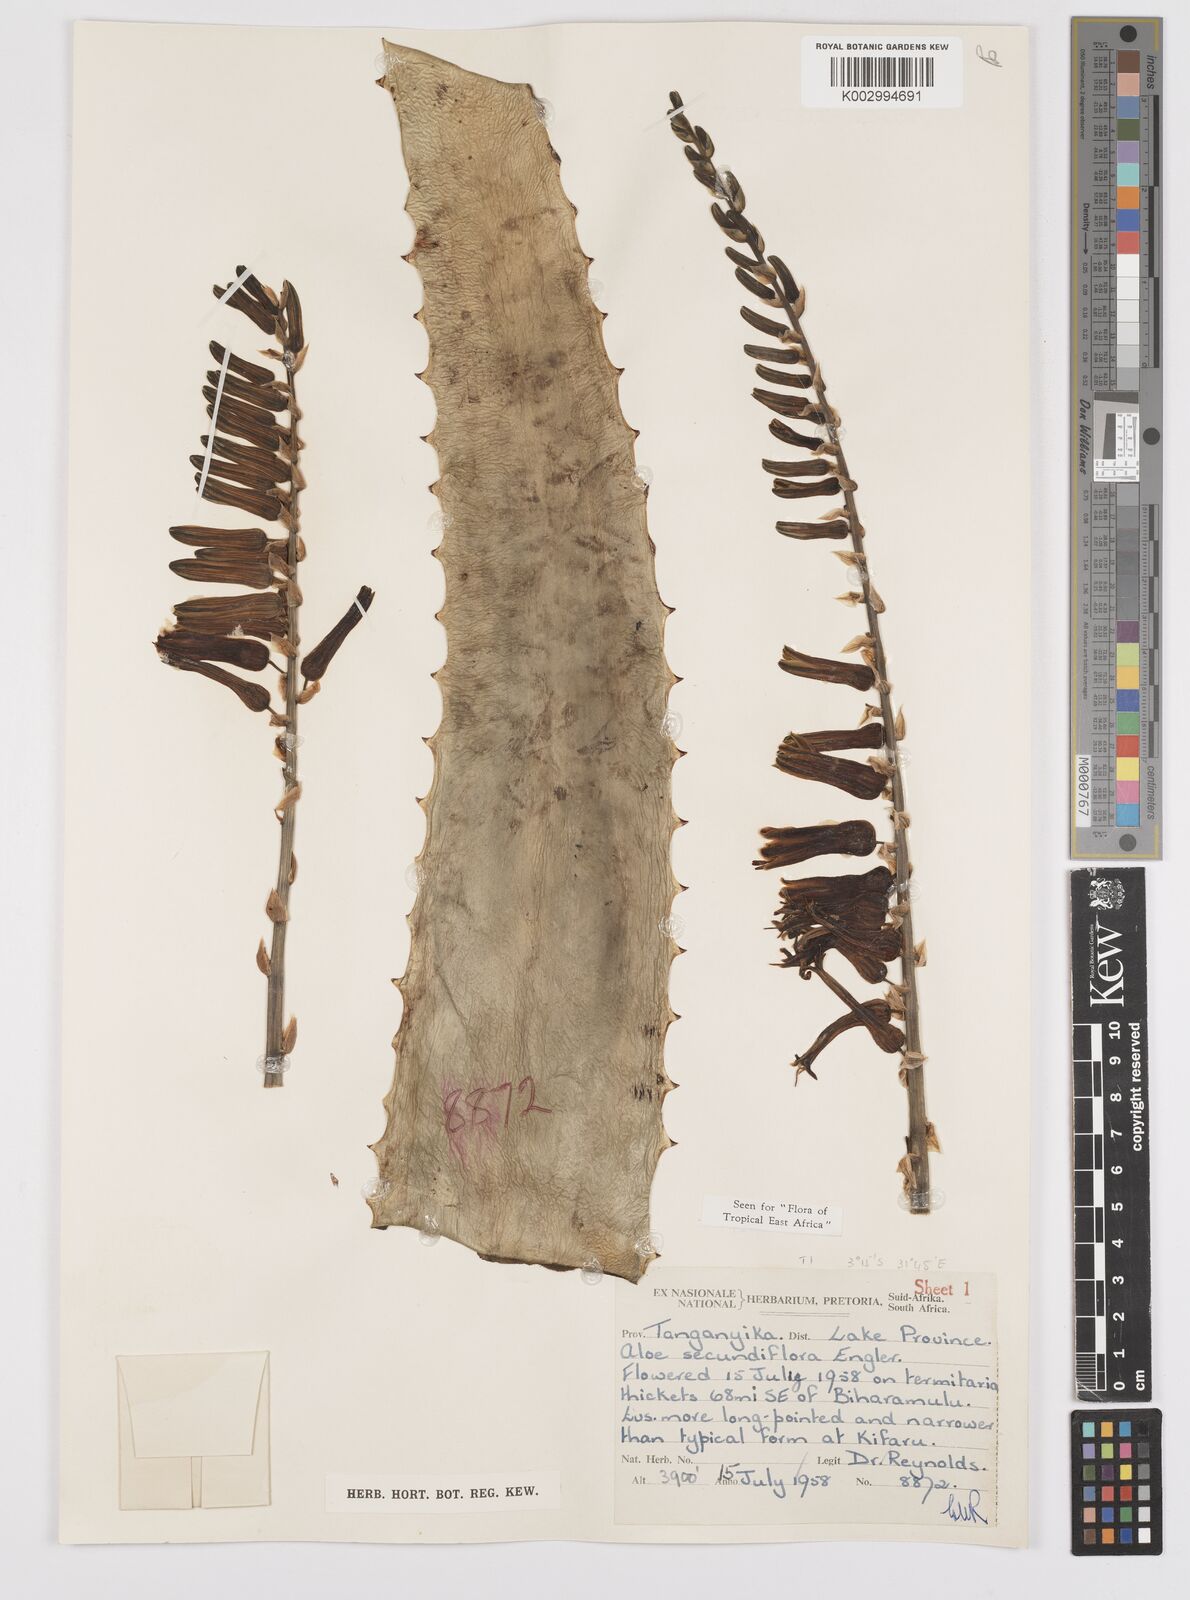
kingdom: Plantae
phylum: Tracheophyta
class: Liliopsida
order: Asparagales
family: Asphodelaceae
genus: Aloe
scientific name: Aloe secundiflora
